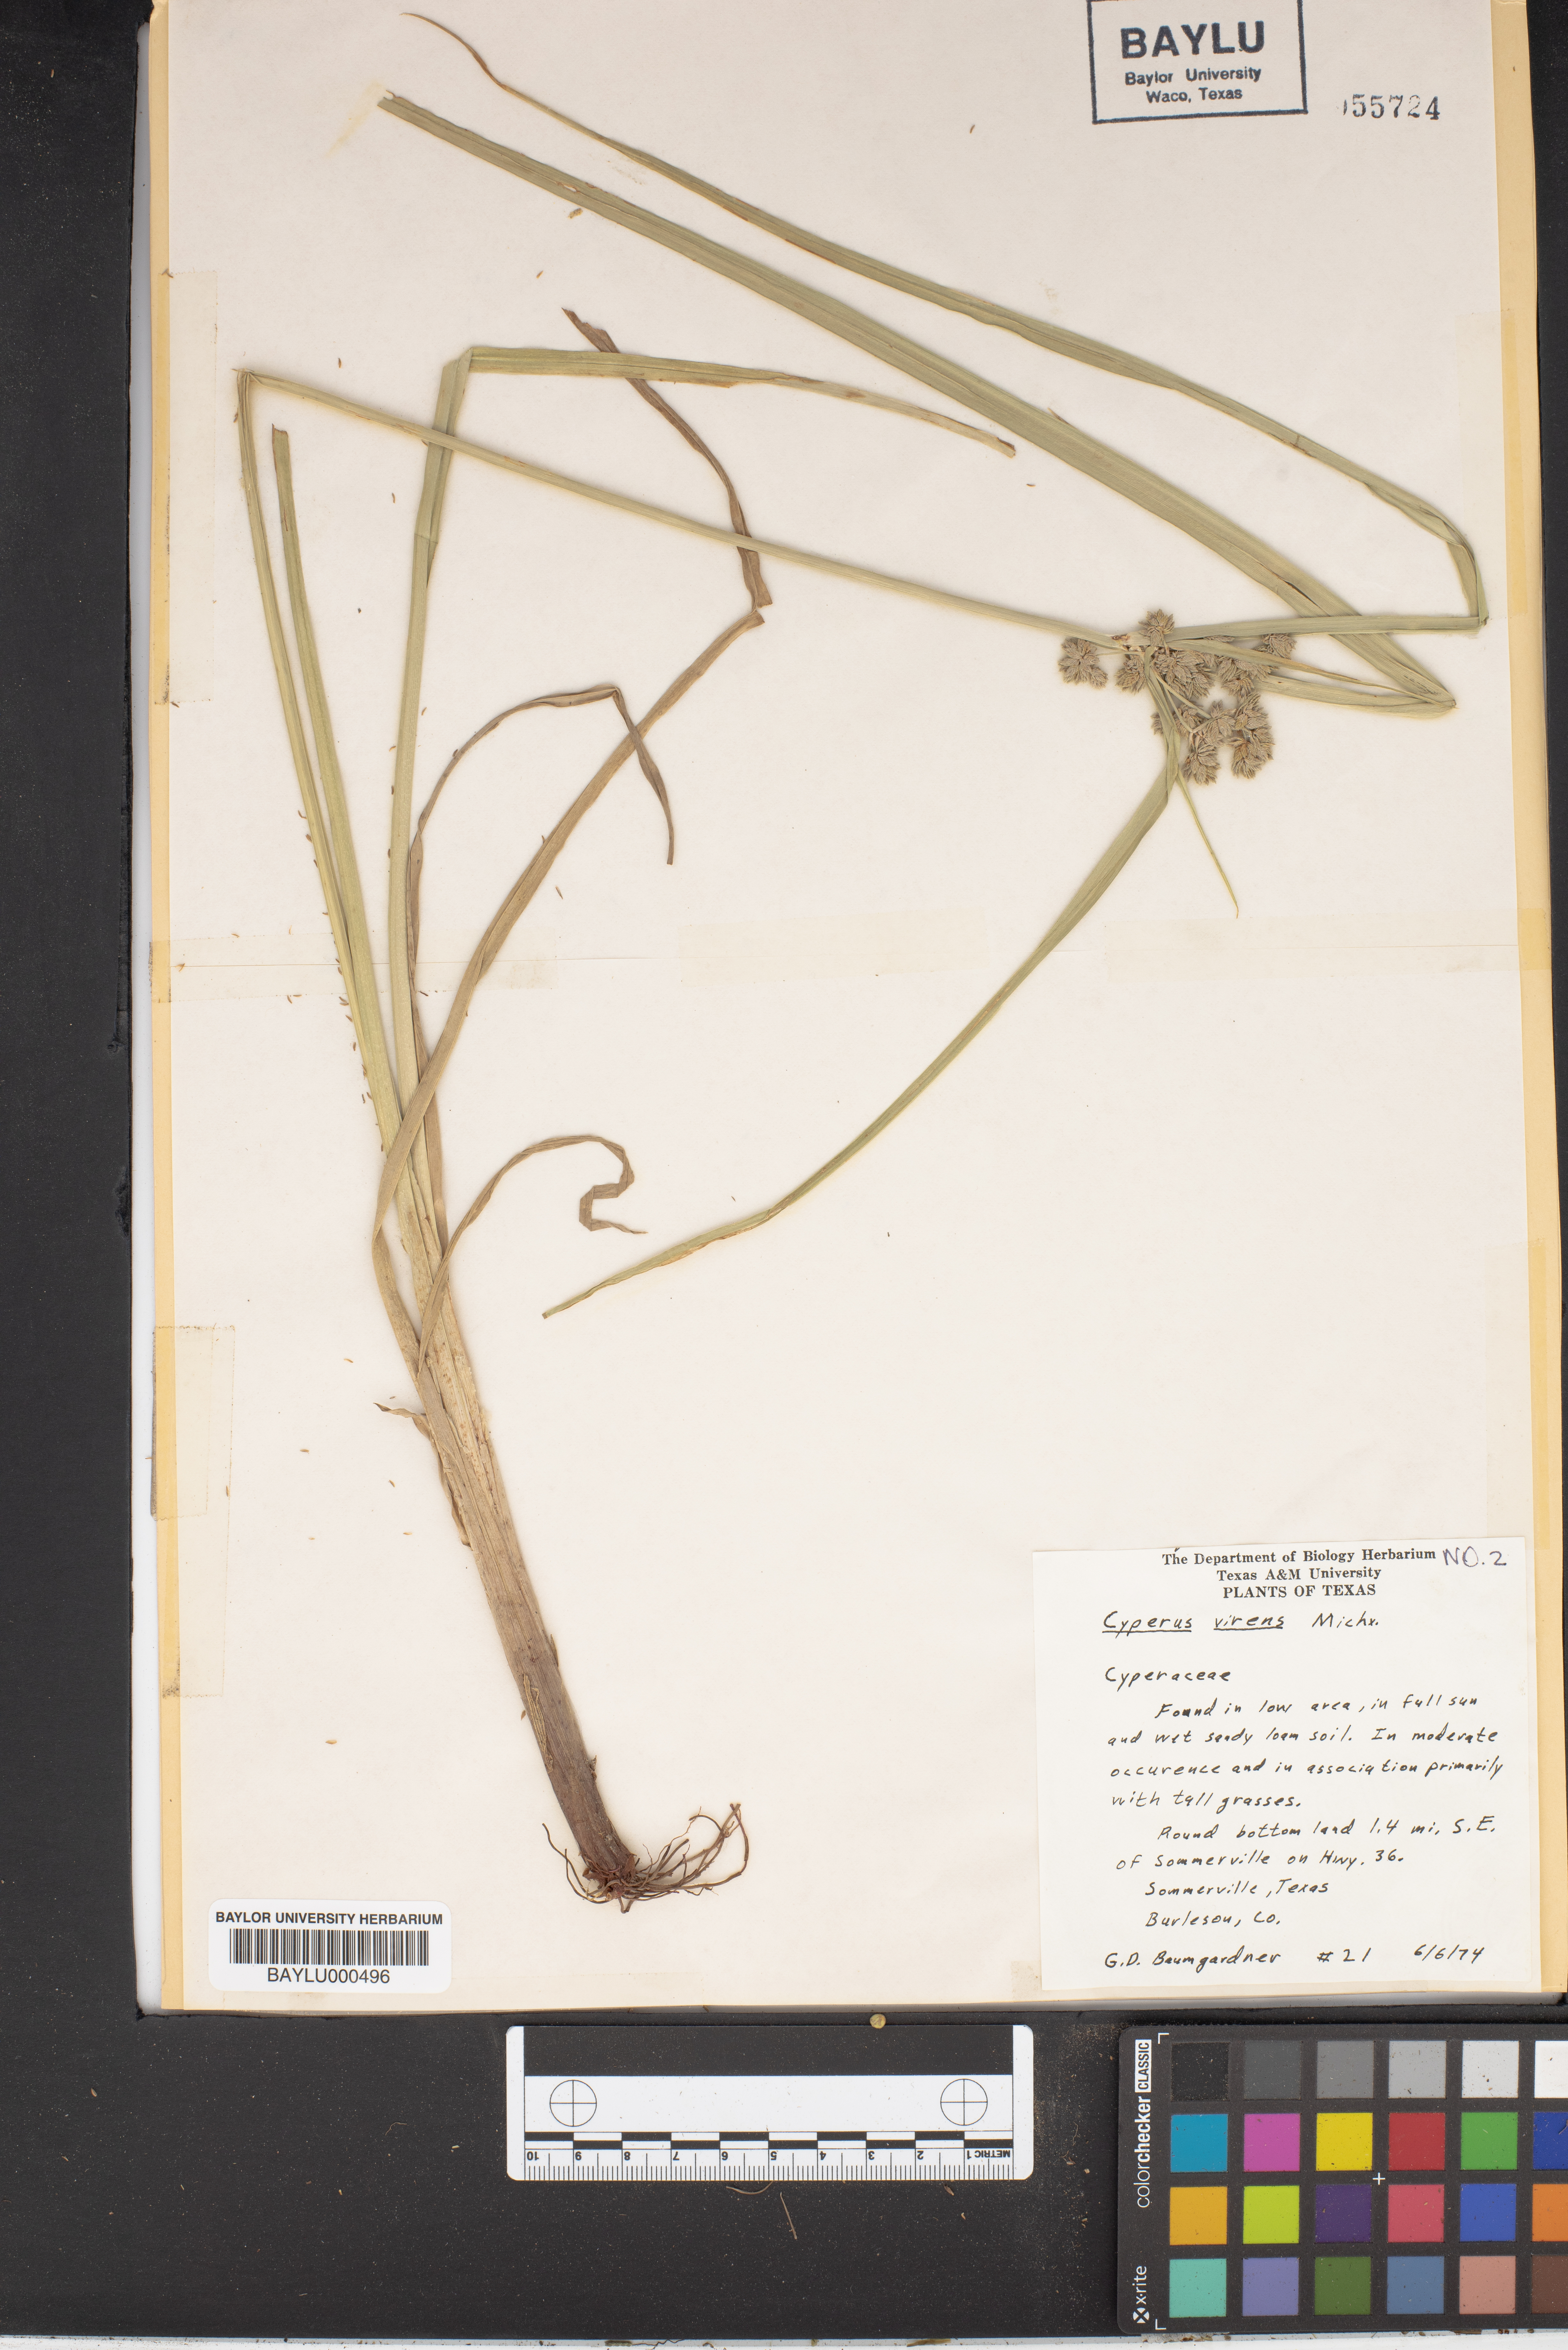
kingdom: Plantae
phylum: Tracheophyta
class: Liliopsida
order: Poales
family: Cyperaceae
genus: Cyperus
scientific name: Cyperus virens
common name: Green flatsedge
